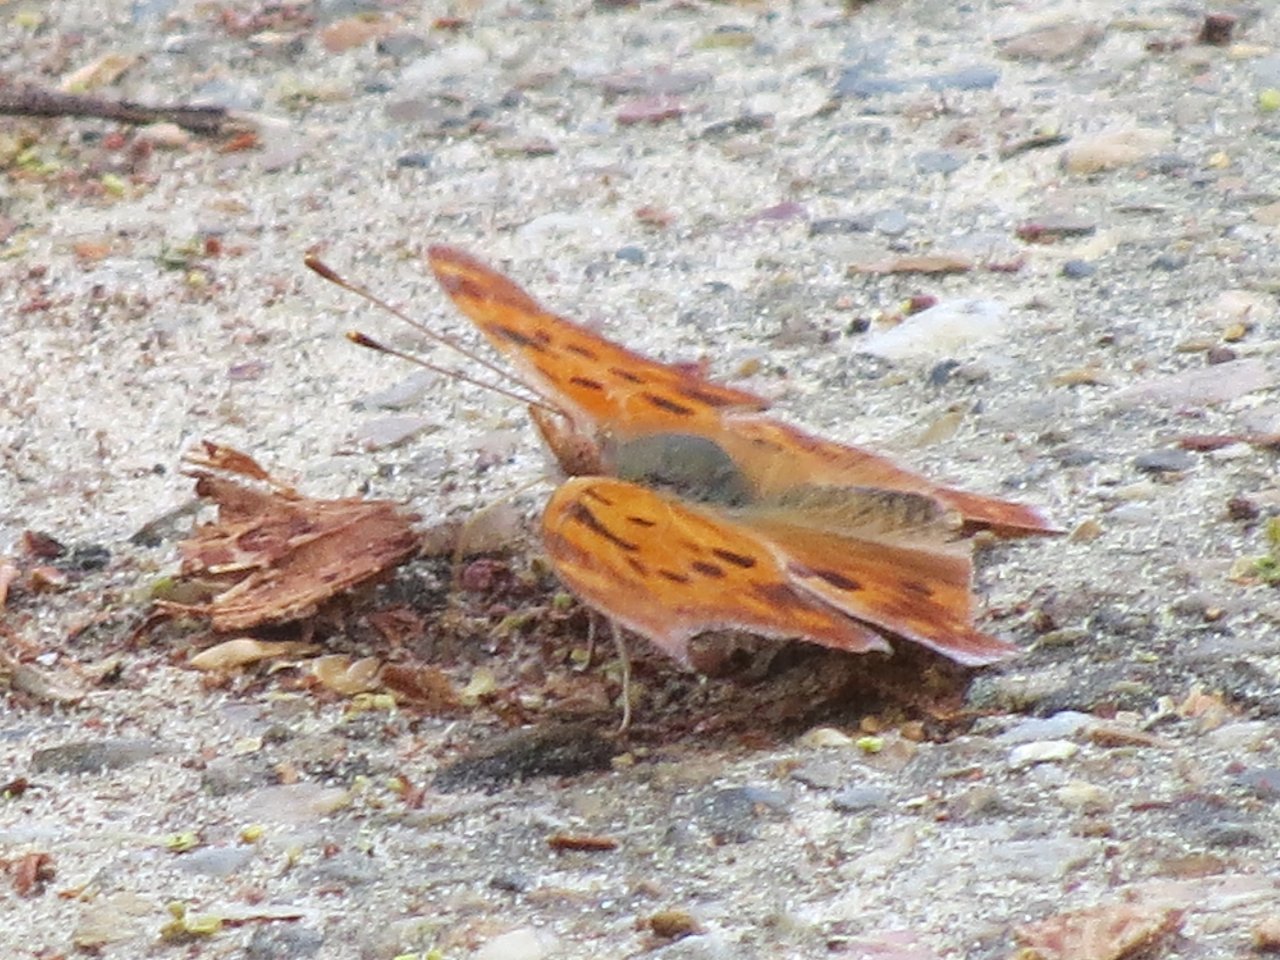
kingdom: Animalia
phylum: Arthropoda
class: Insecta
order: Lepidoptera
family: Nymphalidae
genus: Polygonia
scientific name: Polygonia interrogationis
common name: Question Mark
